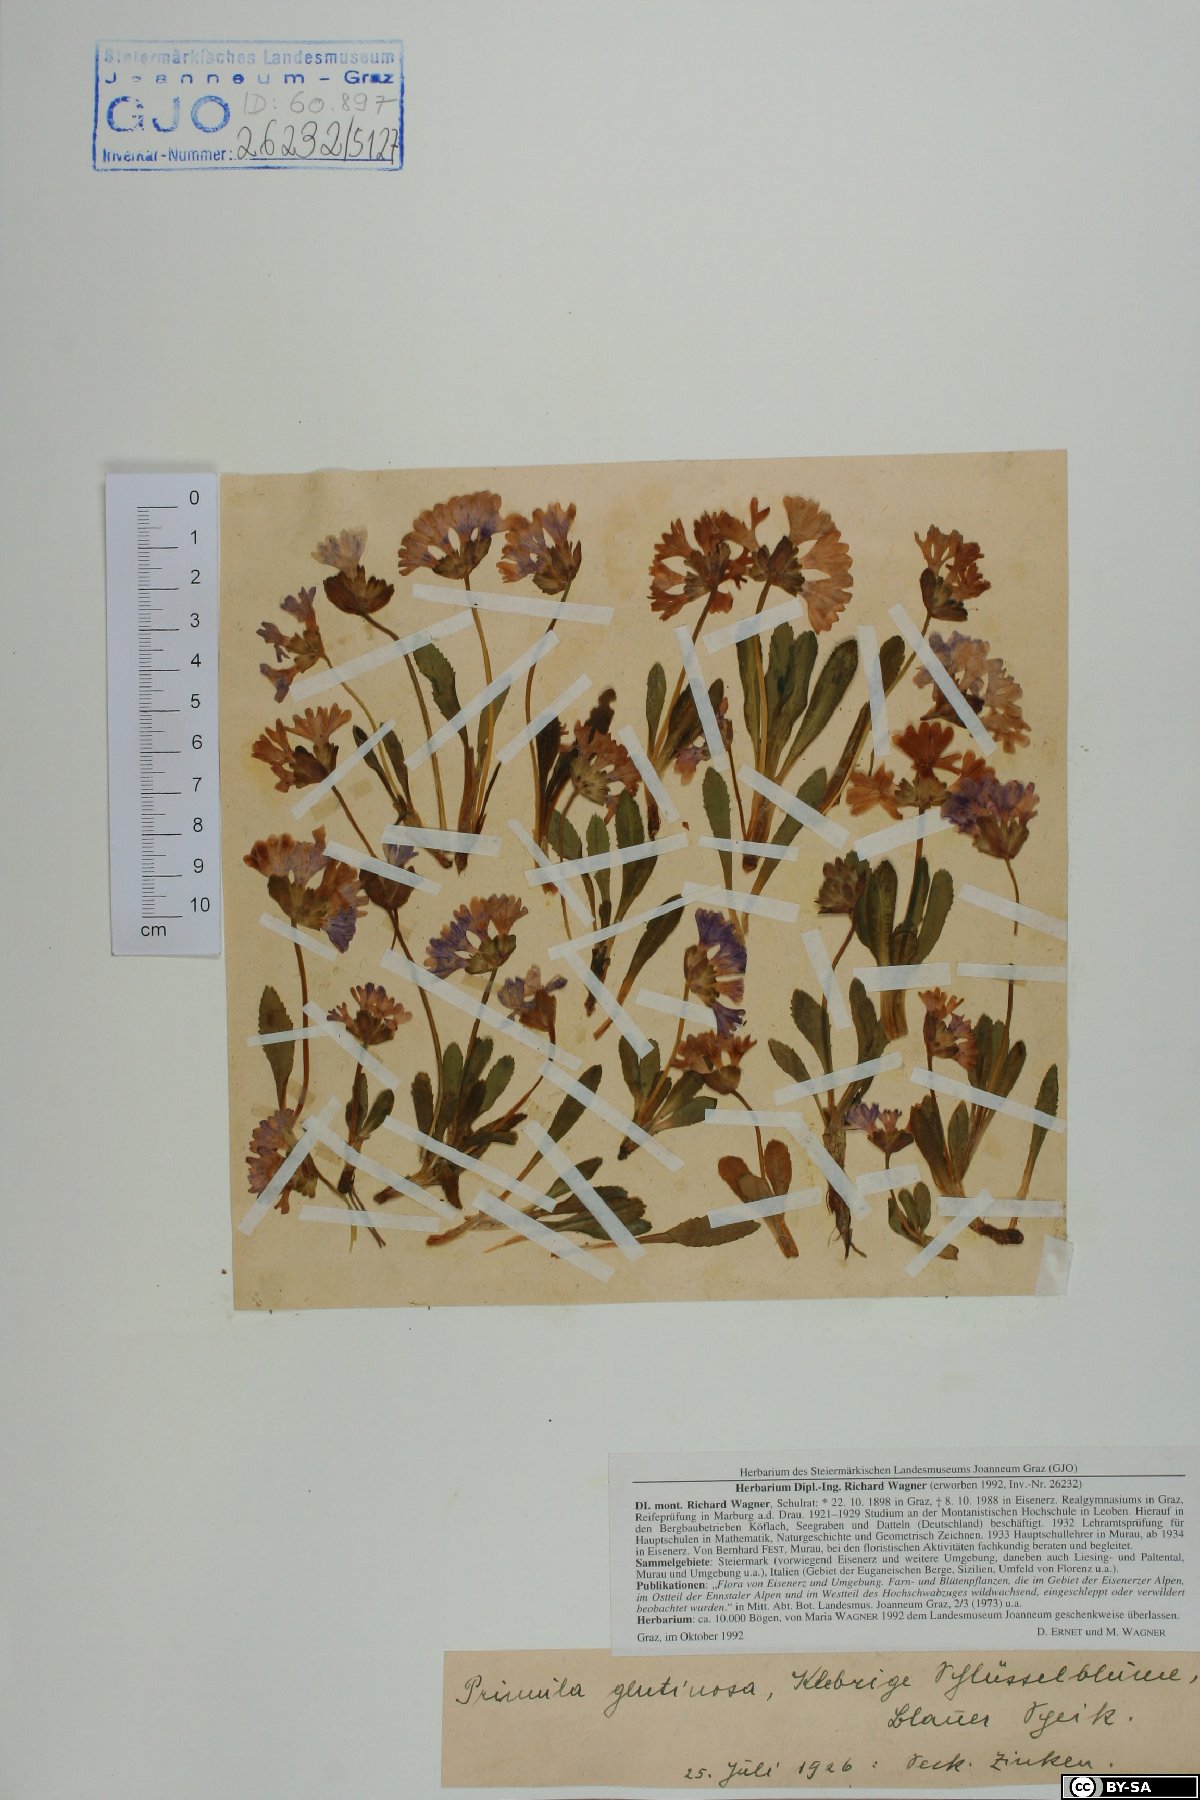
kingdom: Plantae
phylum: Tracheophyta
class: Magnoliopsida
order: Ericales
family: Primulaceae
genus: Primula
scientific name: Primula glutinosa
